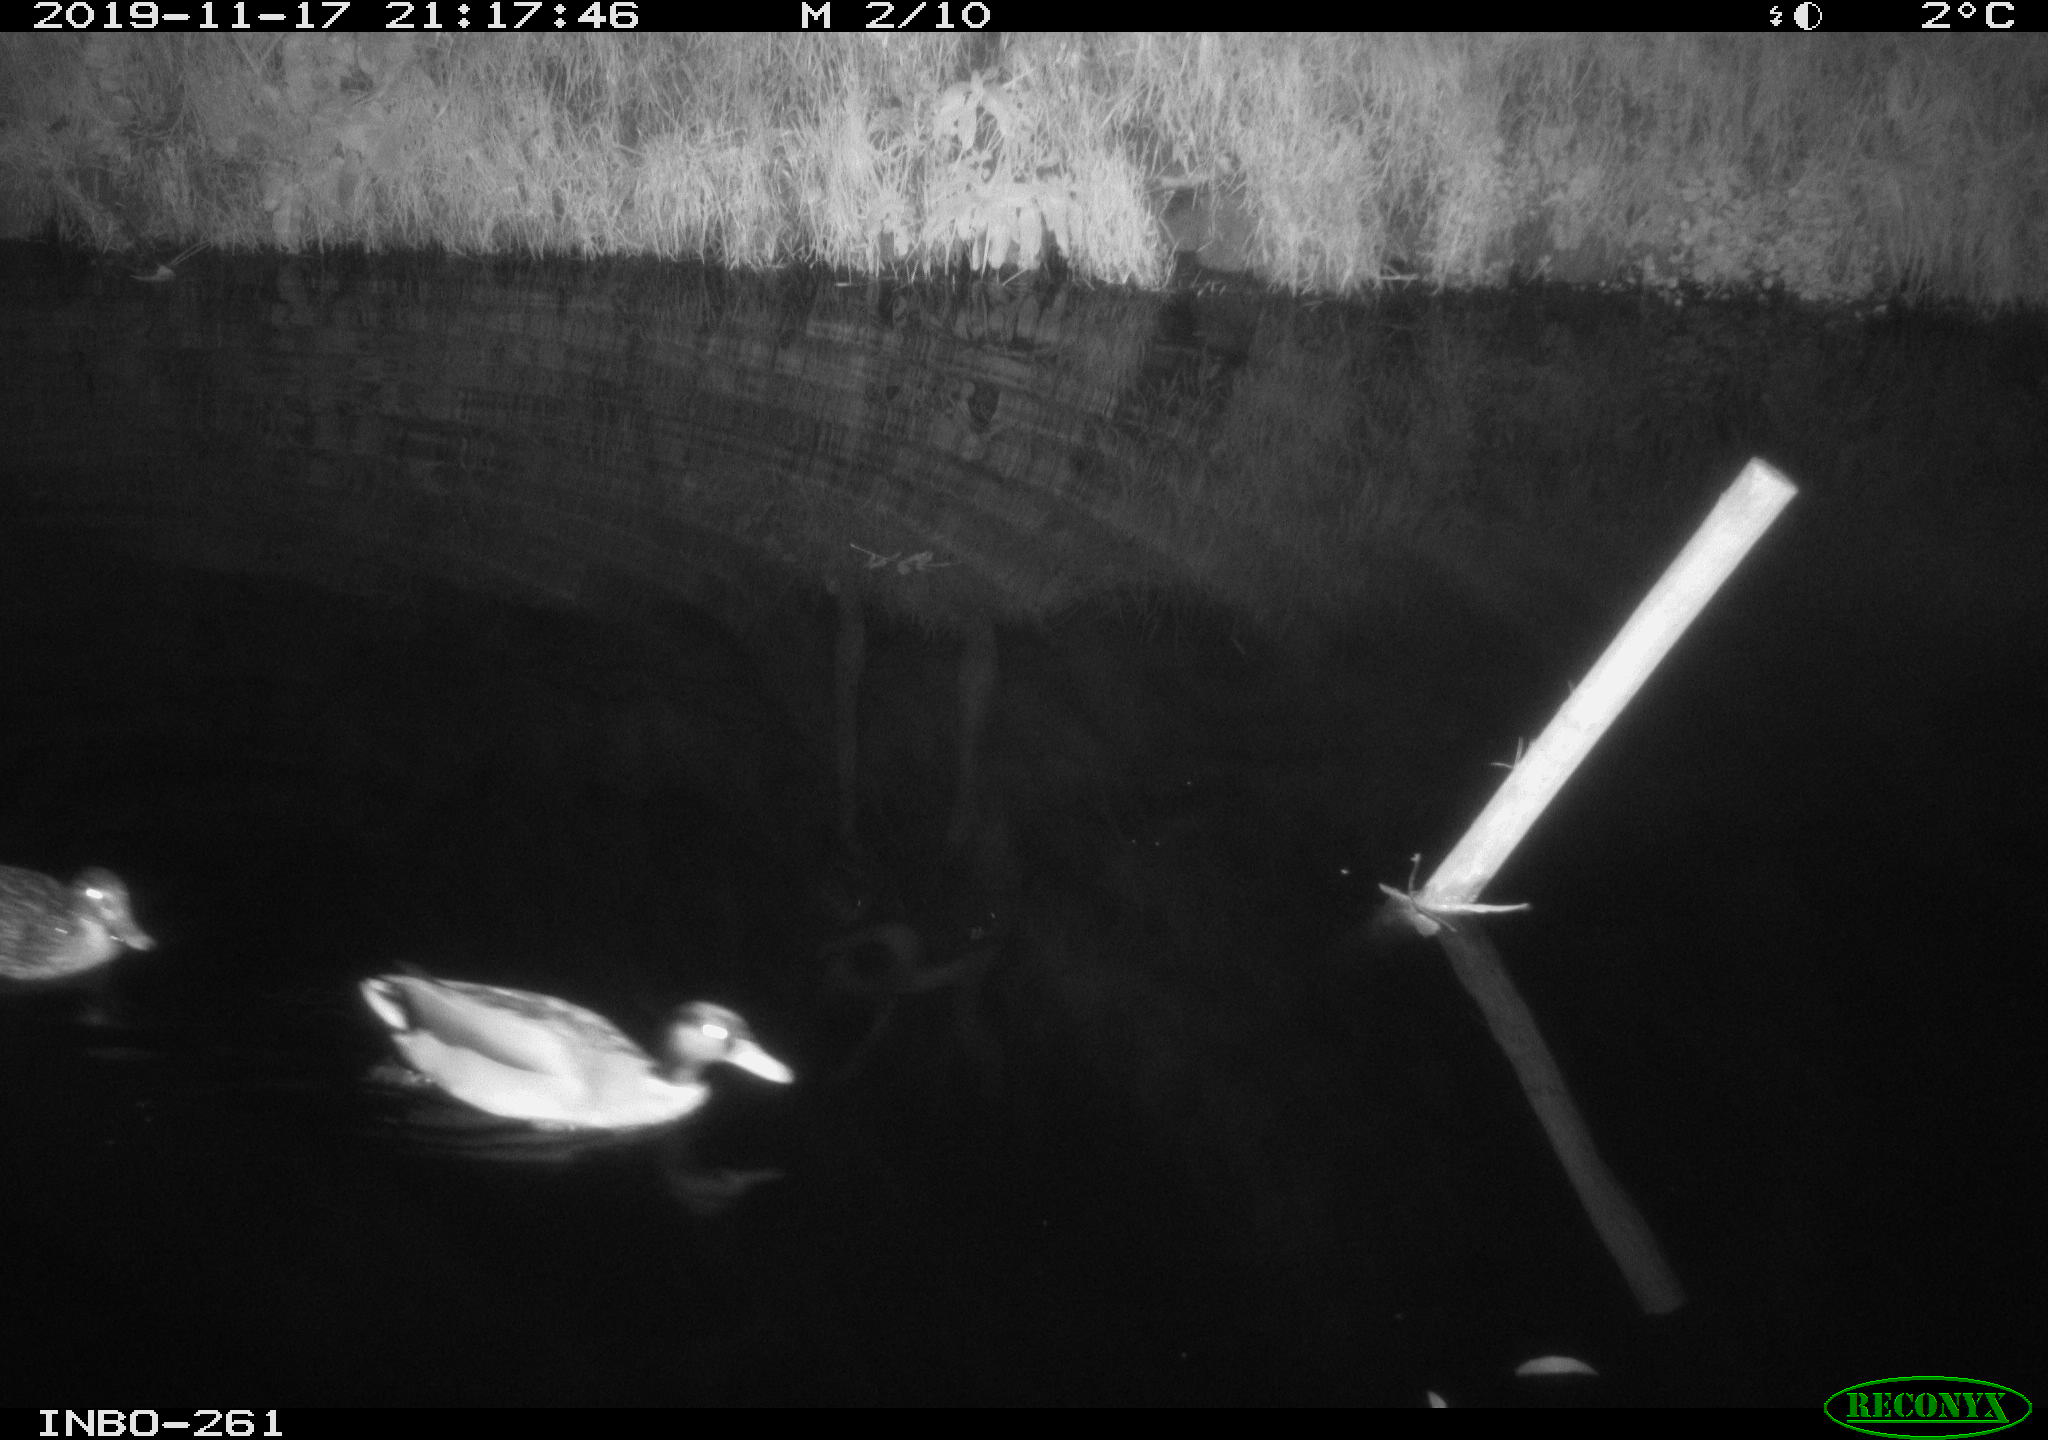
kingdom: Animalia
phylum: Chordata
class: Aves
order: Anseriformes
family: Anatidae
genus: Anas
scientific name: Anas platyrhynchos
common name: Mallard
